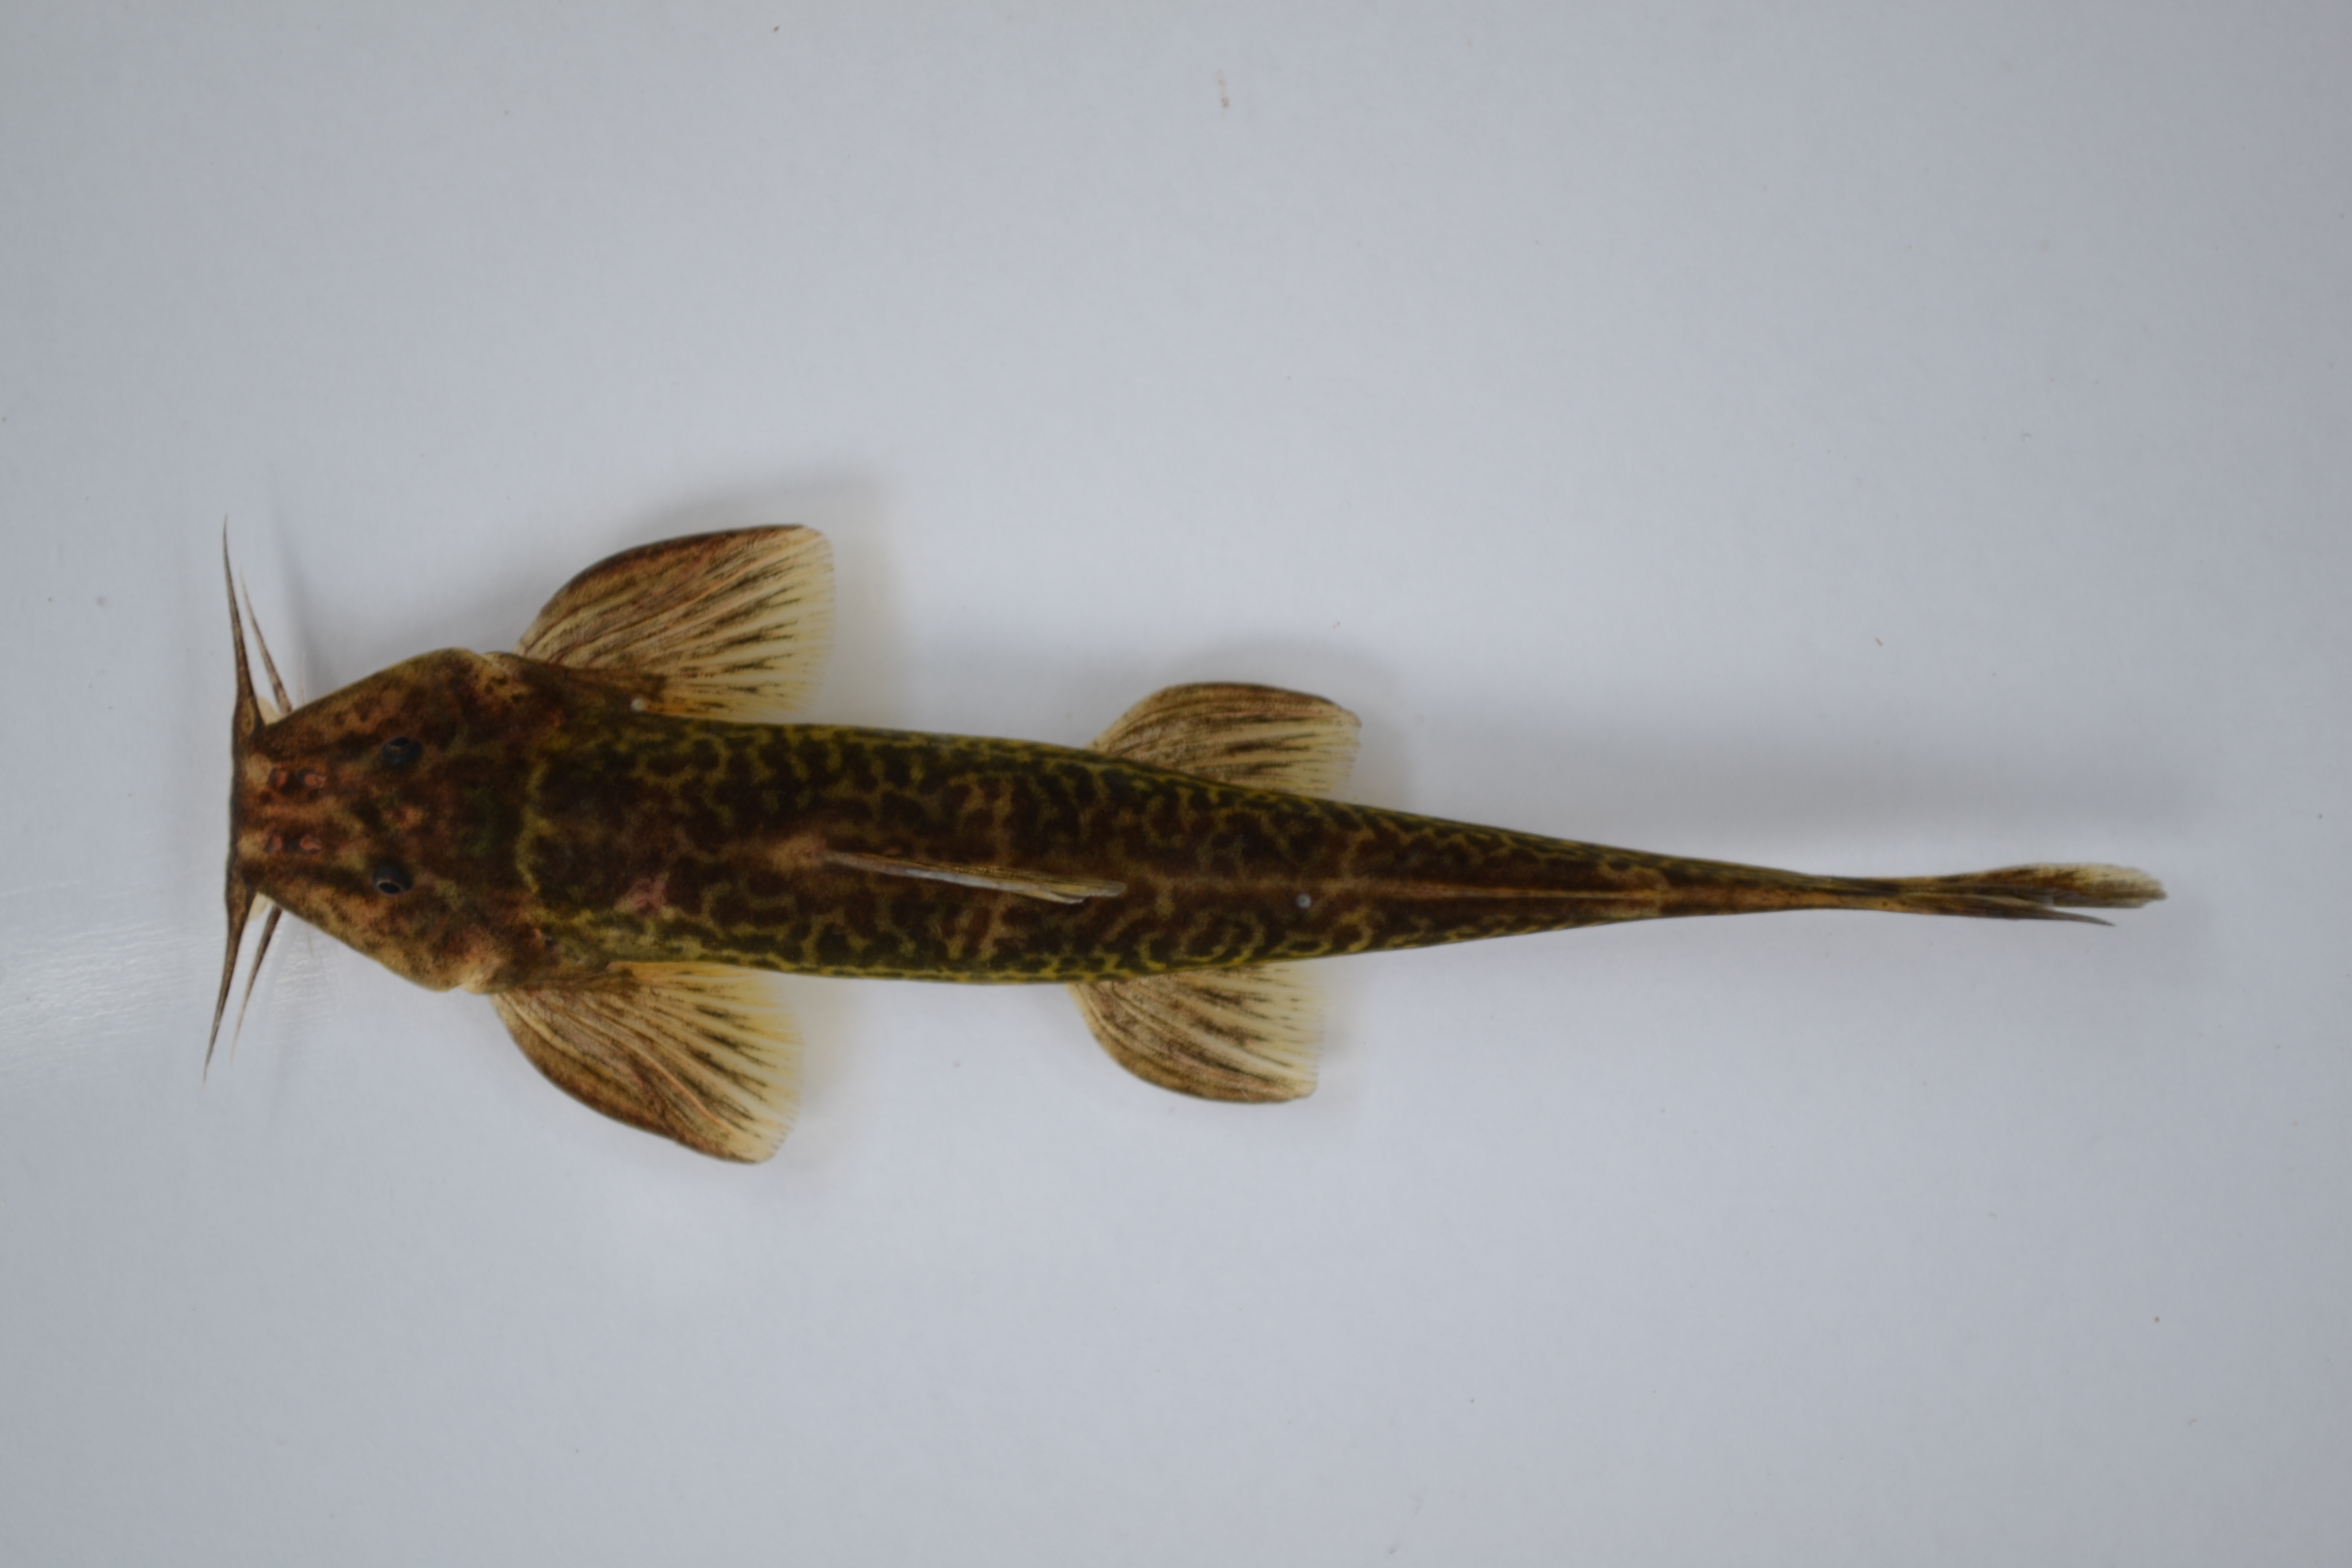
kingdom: Animalia
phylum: Chordata
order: Siluriformes
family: Amphiliidae
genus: Amphilius
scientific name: Amphilius marshalli
